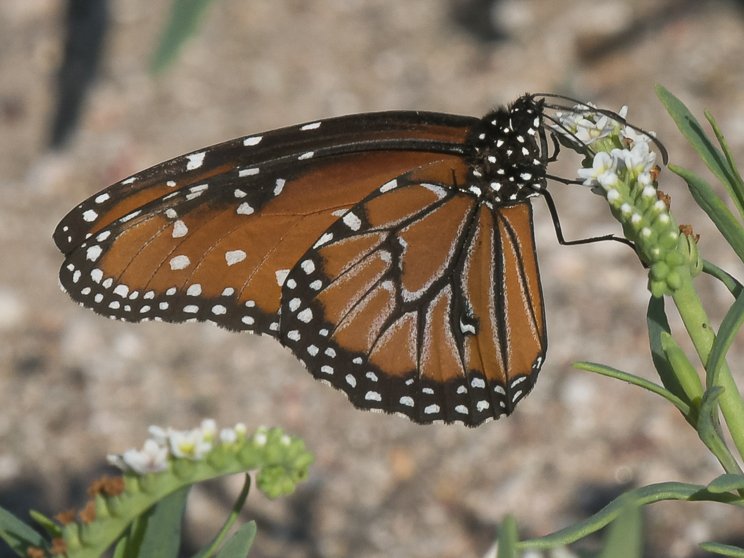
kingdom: Animalia
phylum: Arthropoda
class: Insecta
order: Lepidoptera
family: Nymphalidae
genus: Danaus
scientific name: Danaus gilippus
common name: Queen
